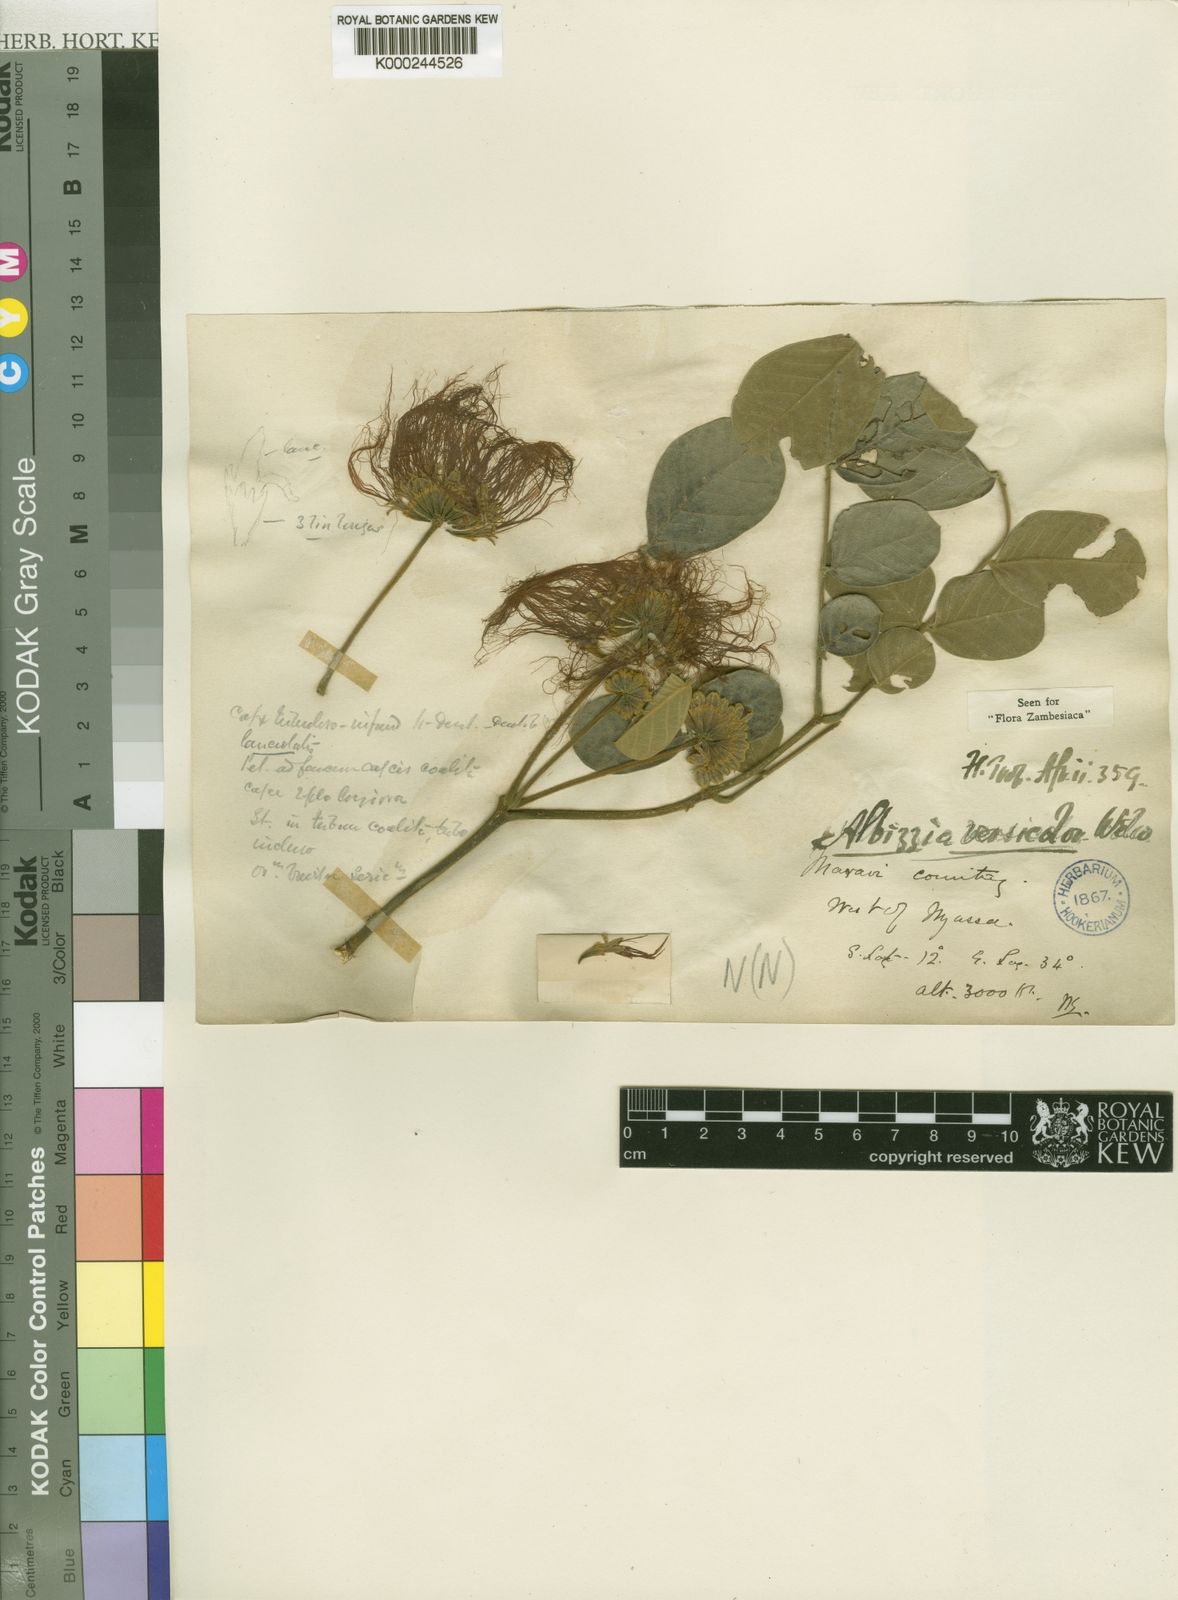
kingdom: Plantae
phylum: Tracheophyta
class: Magnoliopsida
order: Fabales
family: Fabaceae
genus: Albizia
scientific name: Albizia versicolor
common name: Poisonpod
